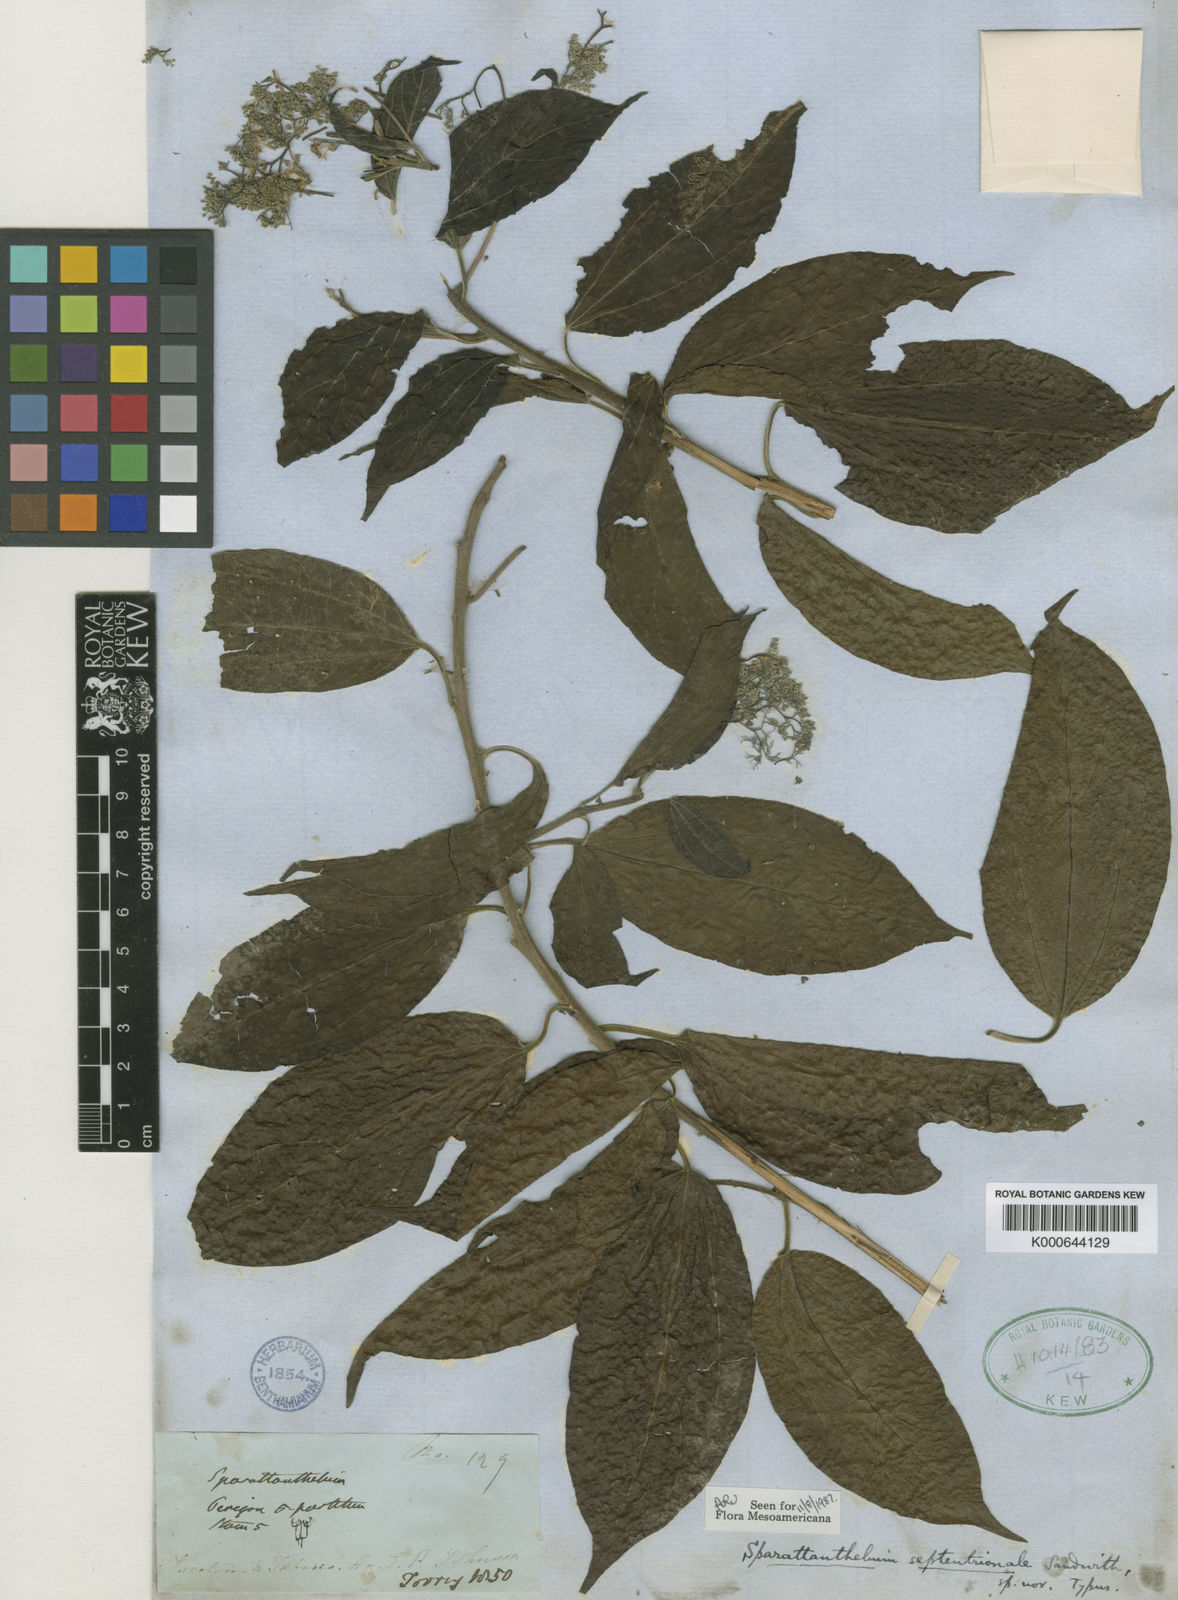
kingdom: Plantae
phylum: Tracheophyta
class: Magnoliopsida
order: Laurales
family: Hernandiaceae
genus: Sparattanthelium
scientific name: Sparattanthelium amazonum
